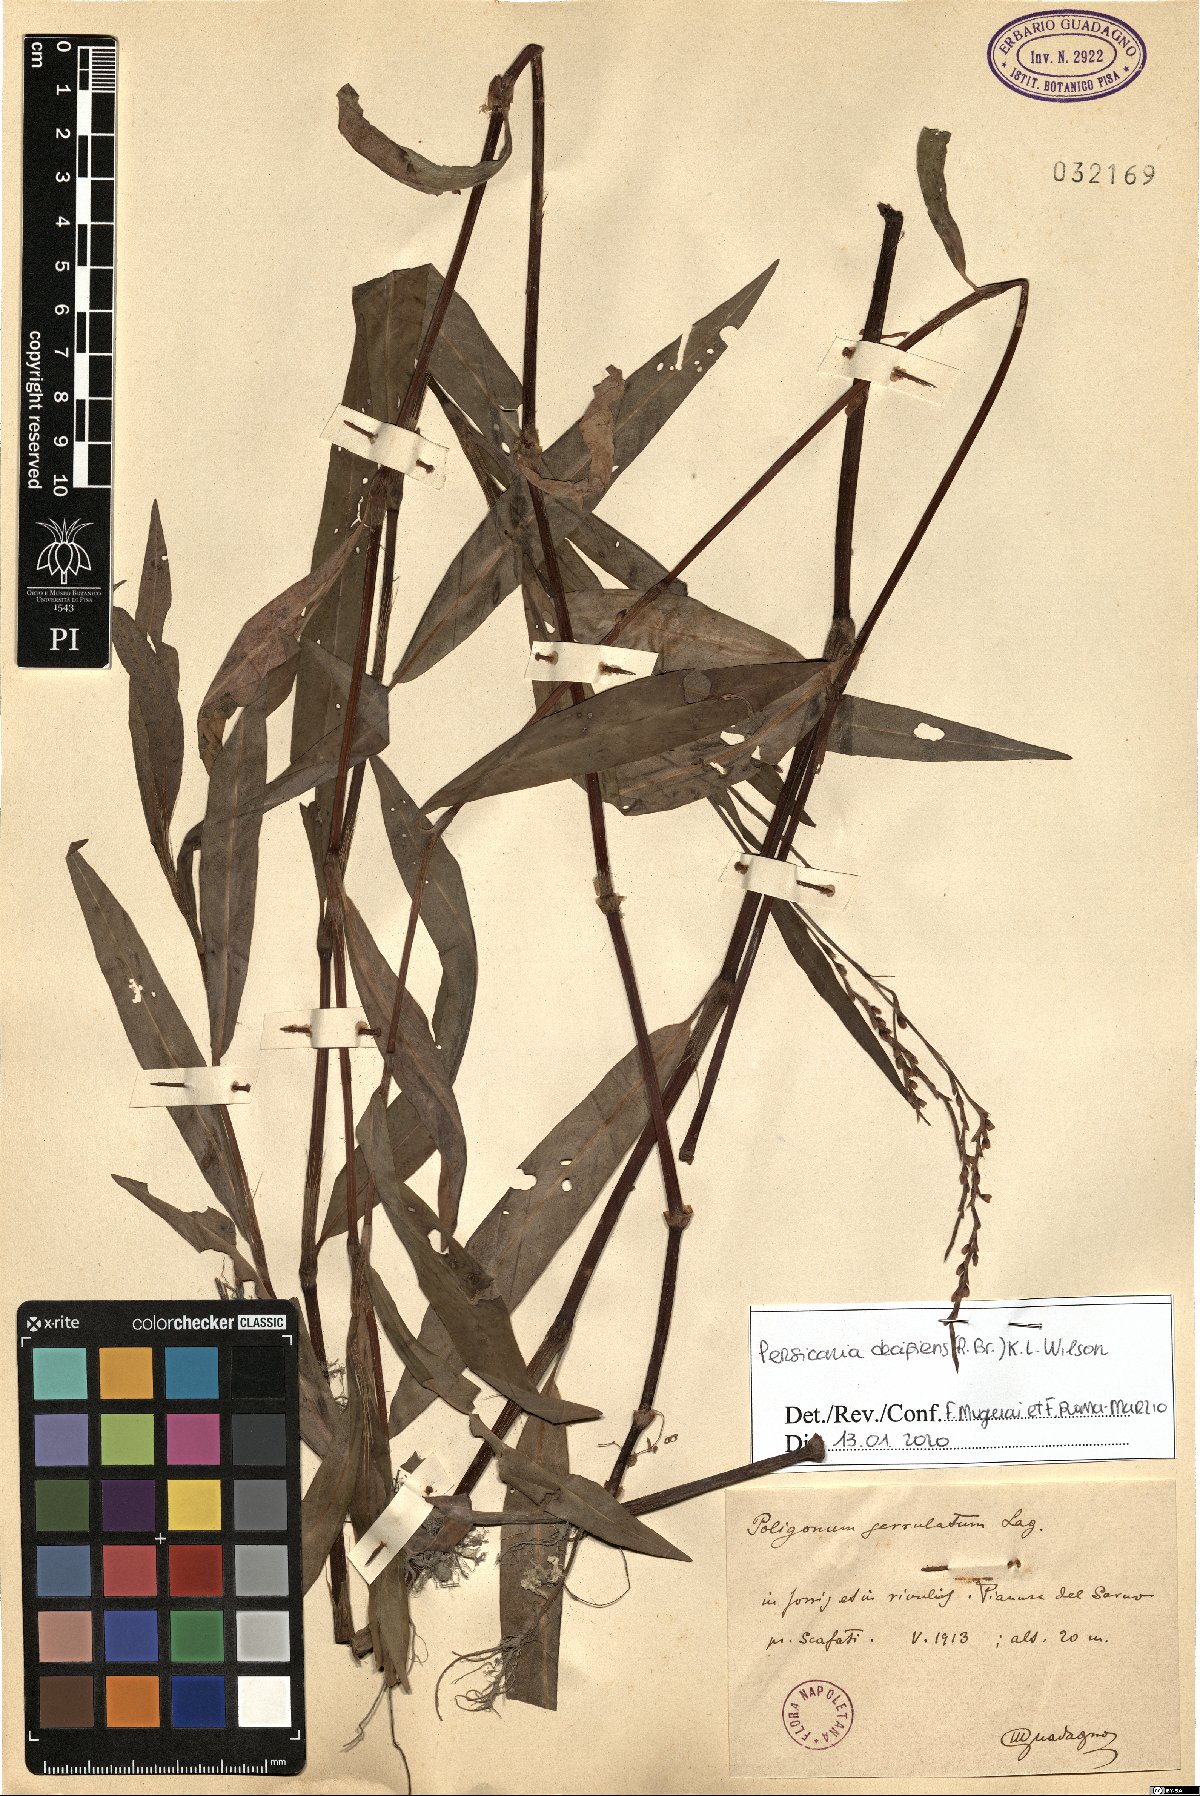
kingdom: Plantae
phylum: Tracheophyta
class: Magnoliopsida
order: Caryophyllales
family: Polygonaceae
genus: Persicaria
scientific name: Persicaria decipiens
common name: Willow-weed
